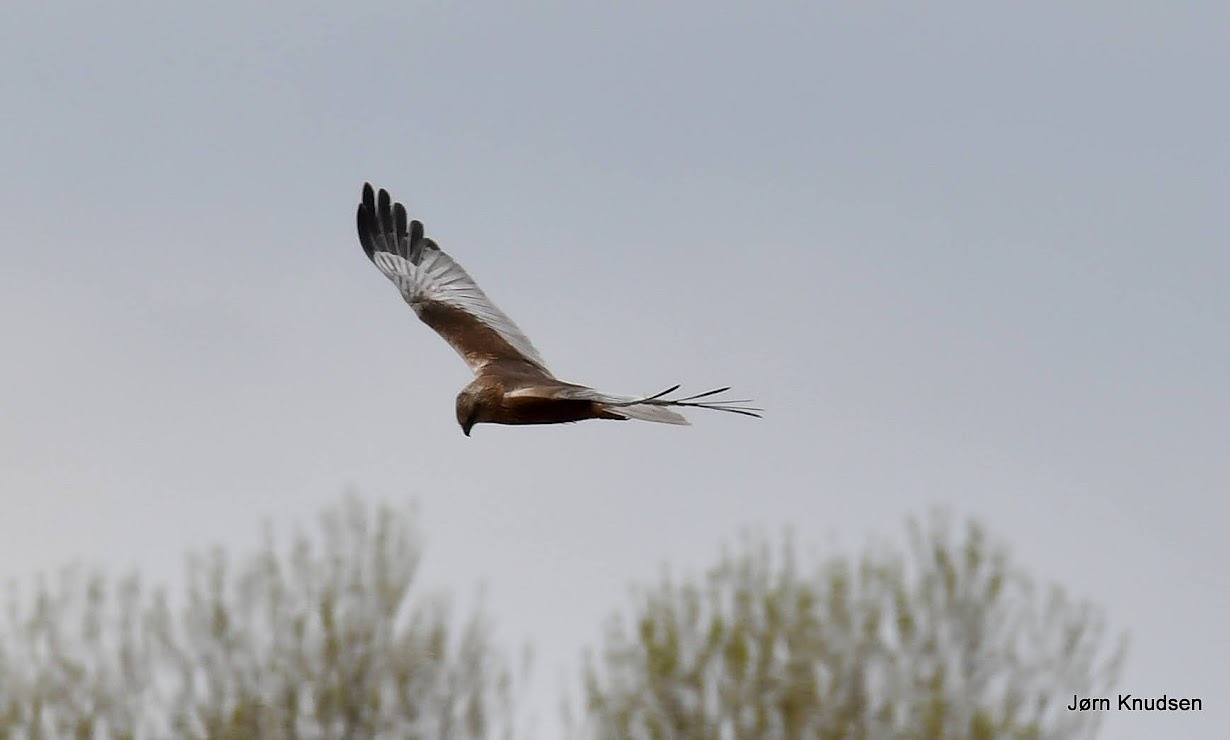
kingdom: Animalia
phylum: Chordata
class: Aves
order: Accipitriformes
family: Accipitridae
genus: Circus
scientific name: Circus aeruginosus
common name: Rørhøg
